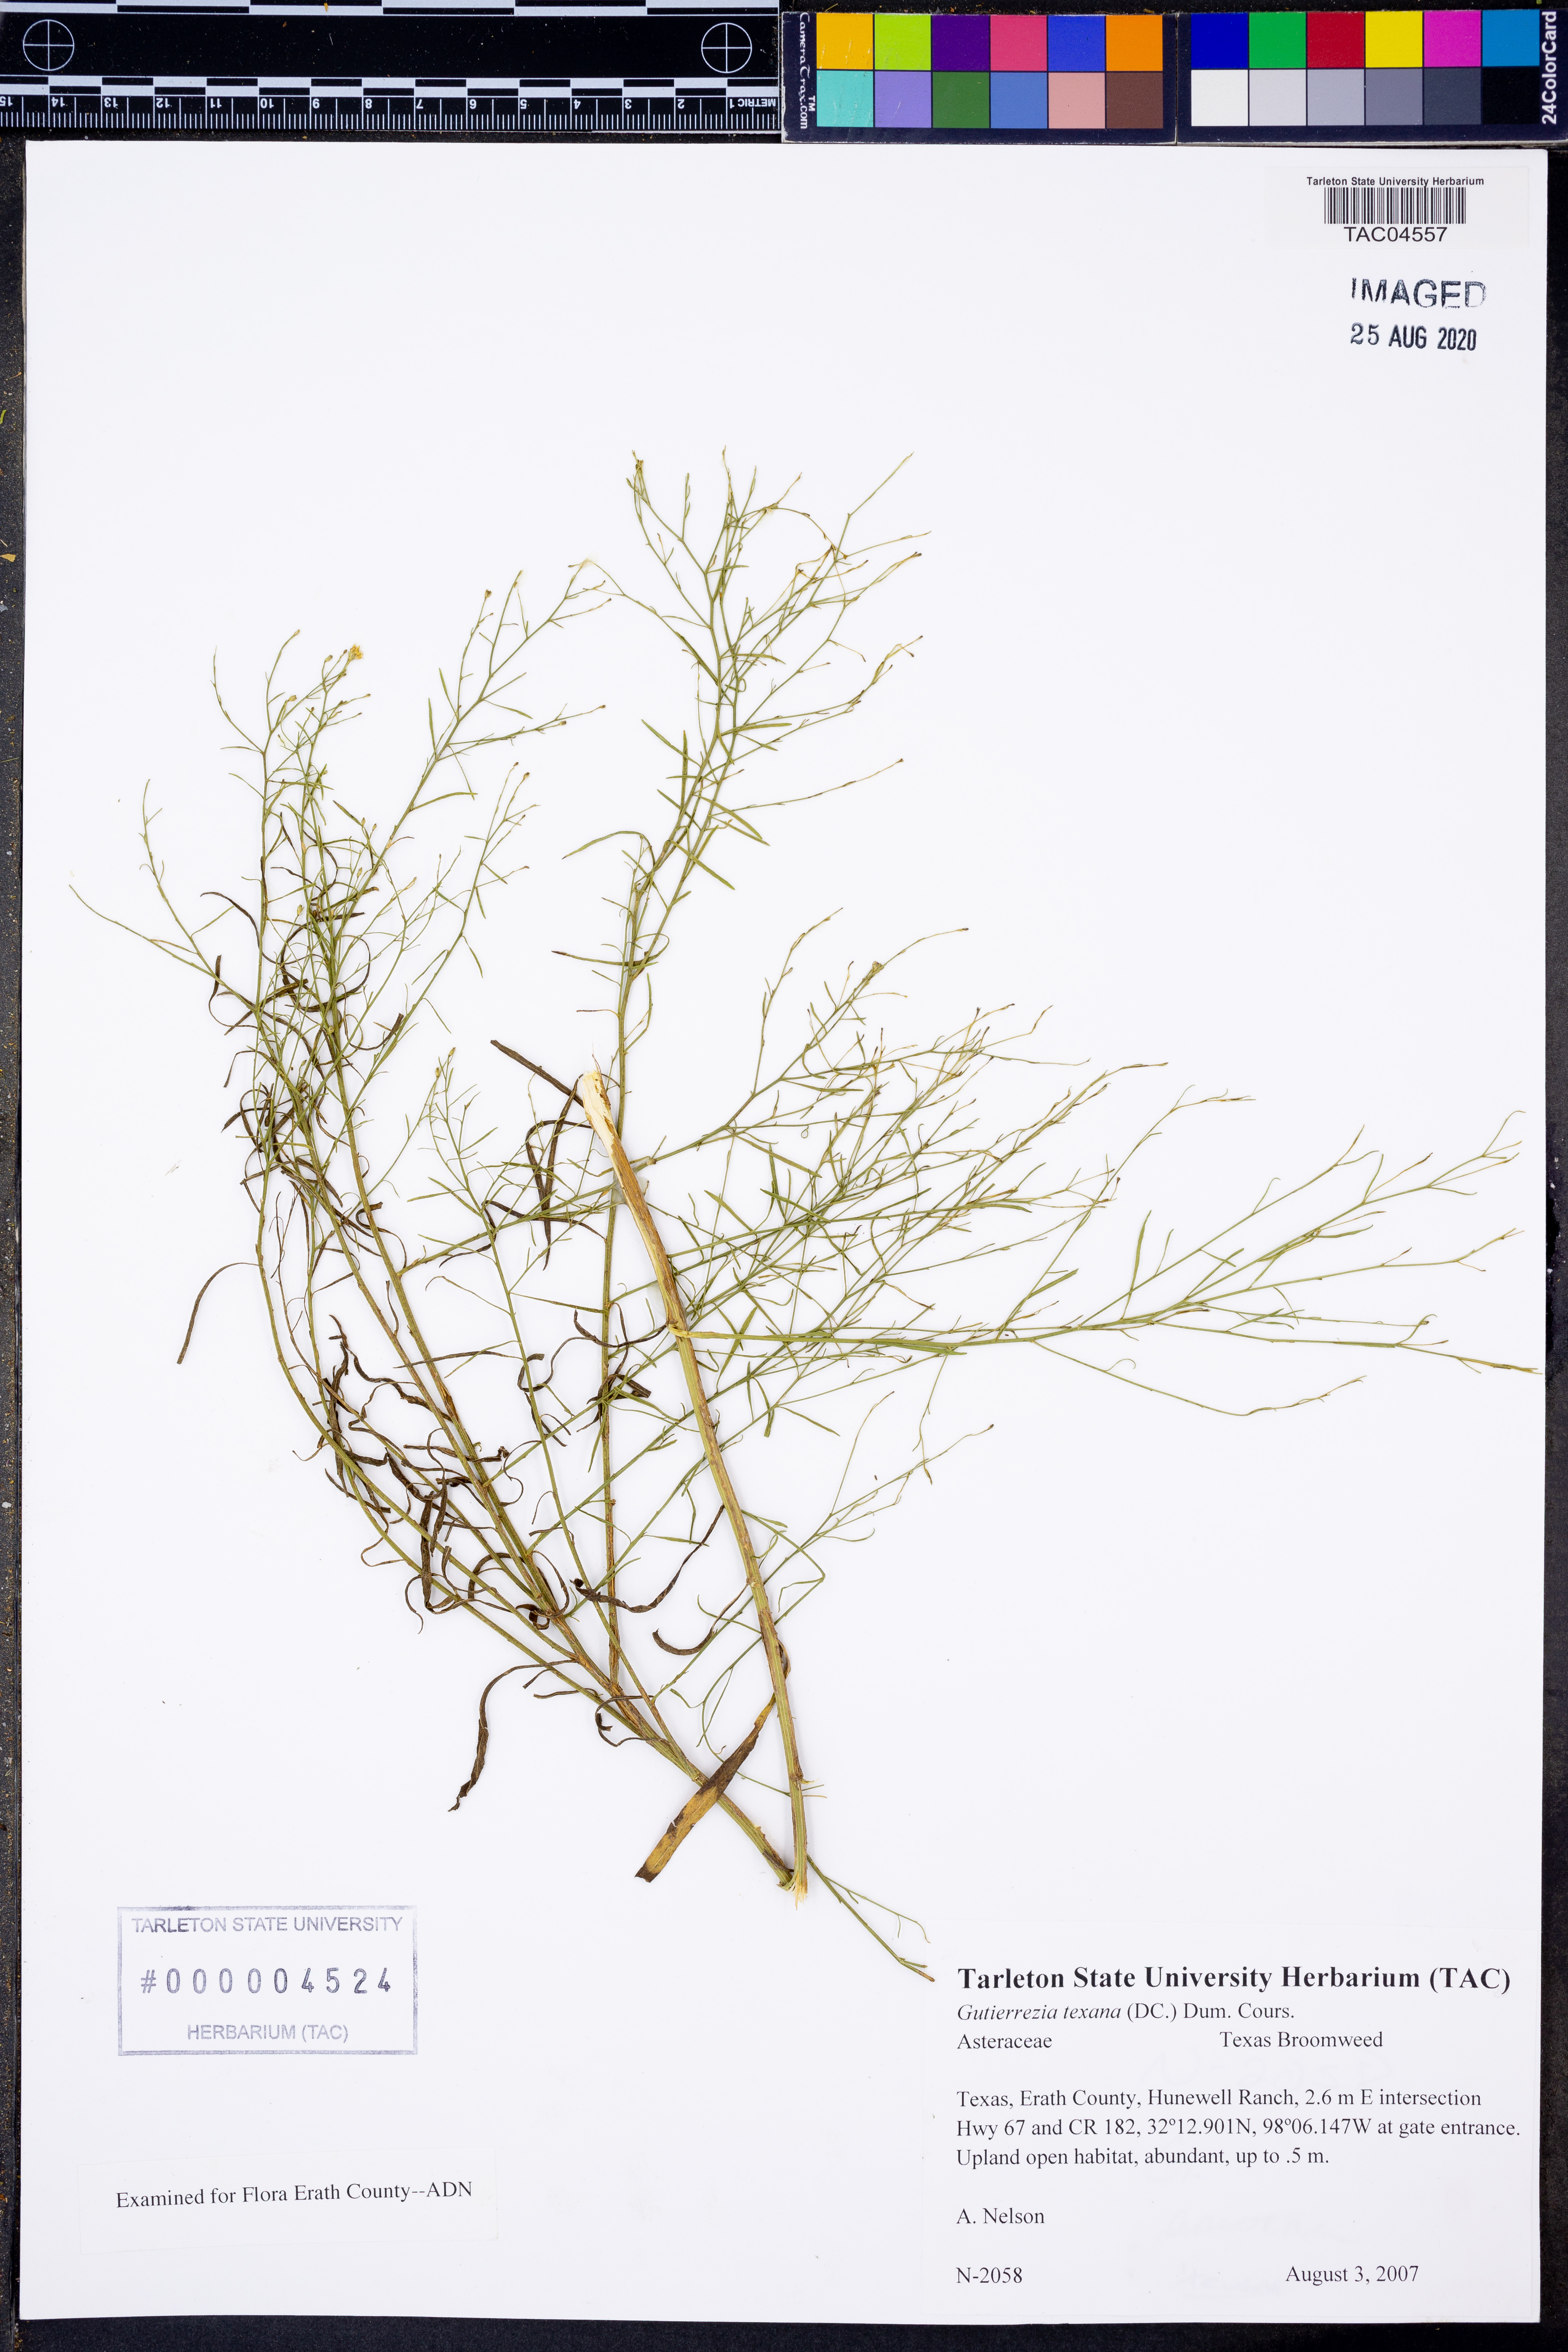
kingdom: Plantae
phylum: Tracheophyta
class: Magnoliopsida
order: Asterales
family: Asteraceae
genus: Gutierrezia
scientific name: Gutierrezia texana
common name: Texas snakeweed
